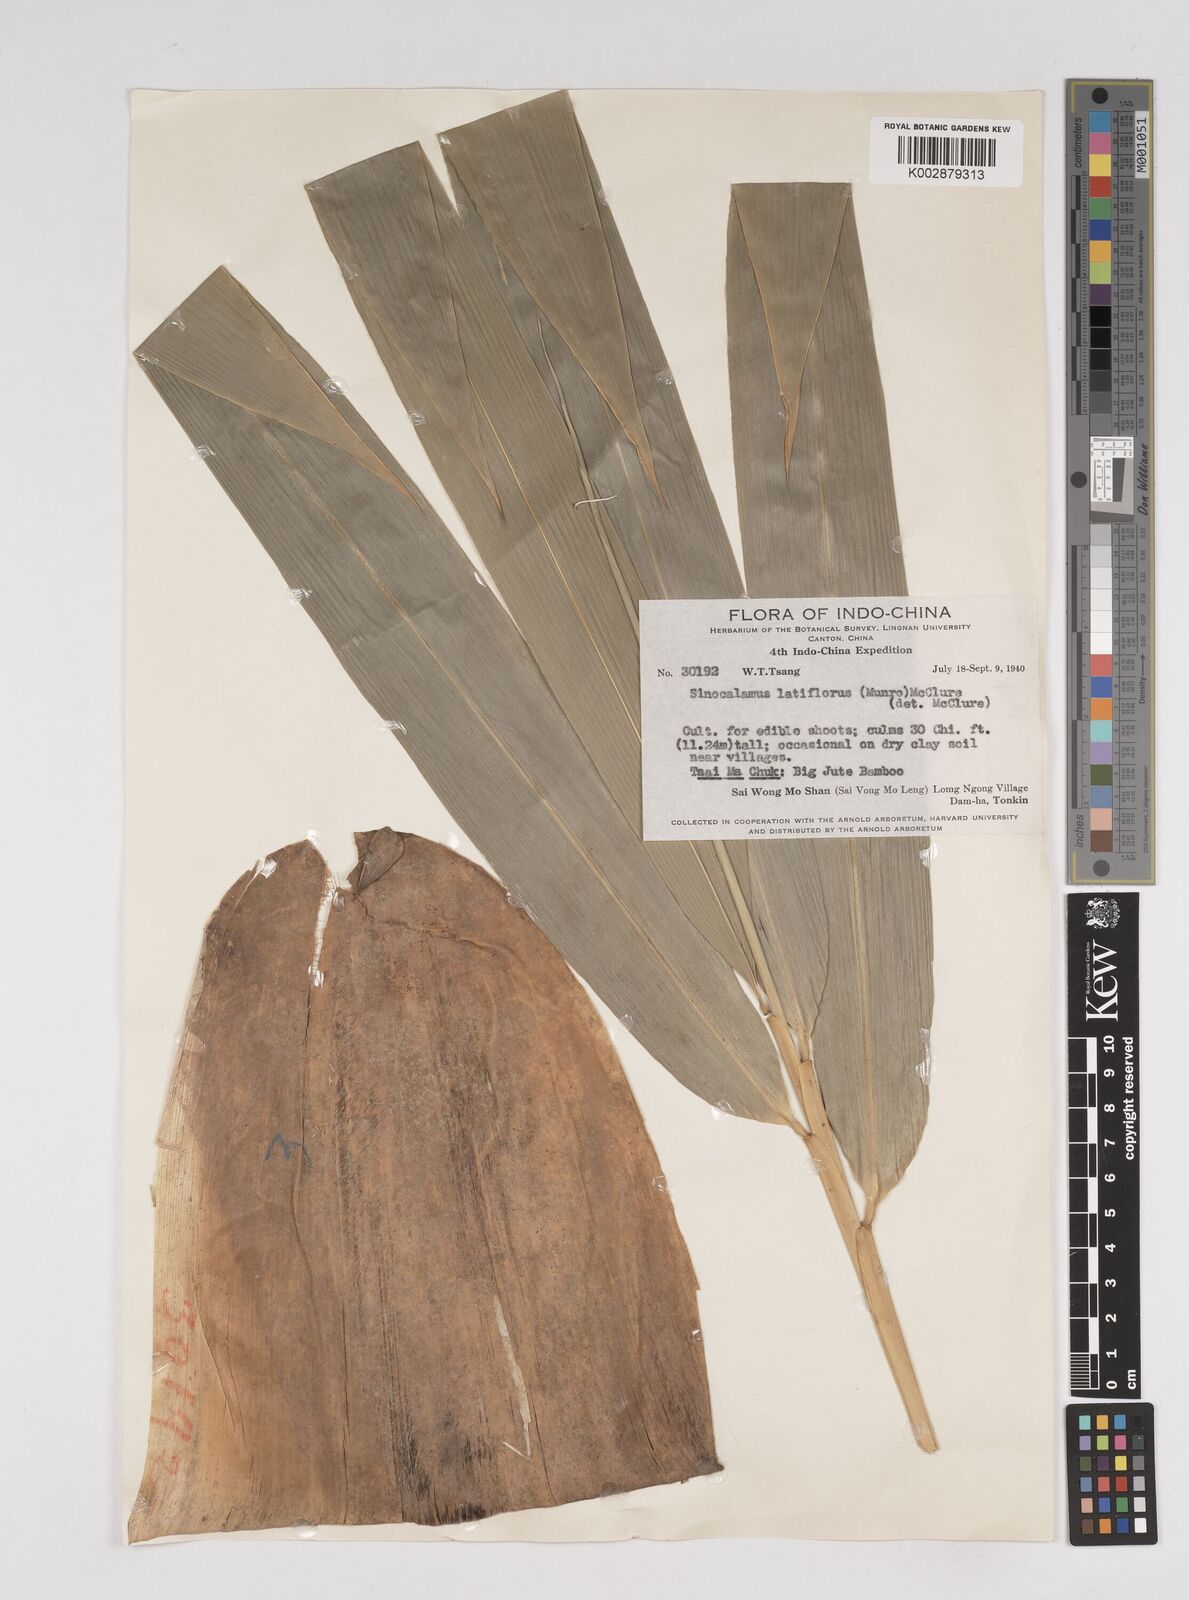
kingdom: Plantae
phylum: Tracheophyta
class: Liliopsida
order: Poales
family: Poaceae
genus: Dendrocalamus
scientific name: Dendrocalamus latiflorus
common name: Giant bamboo
